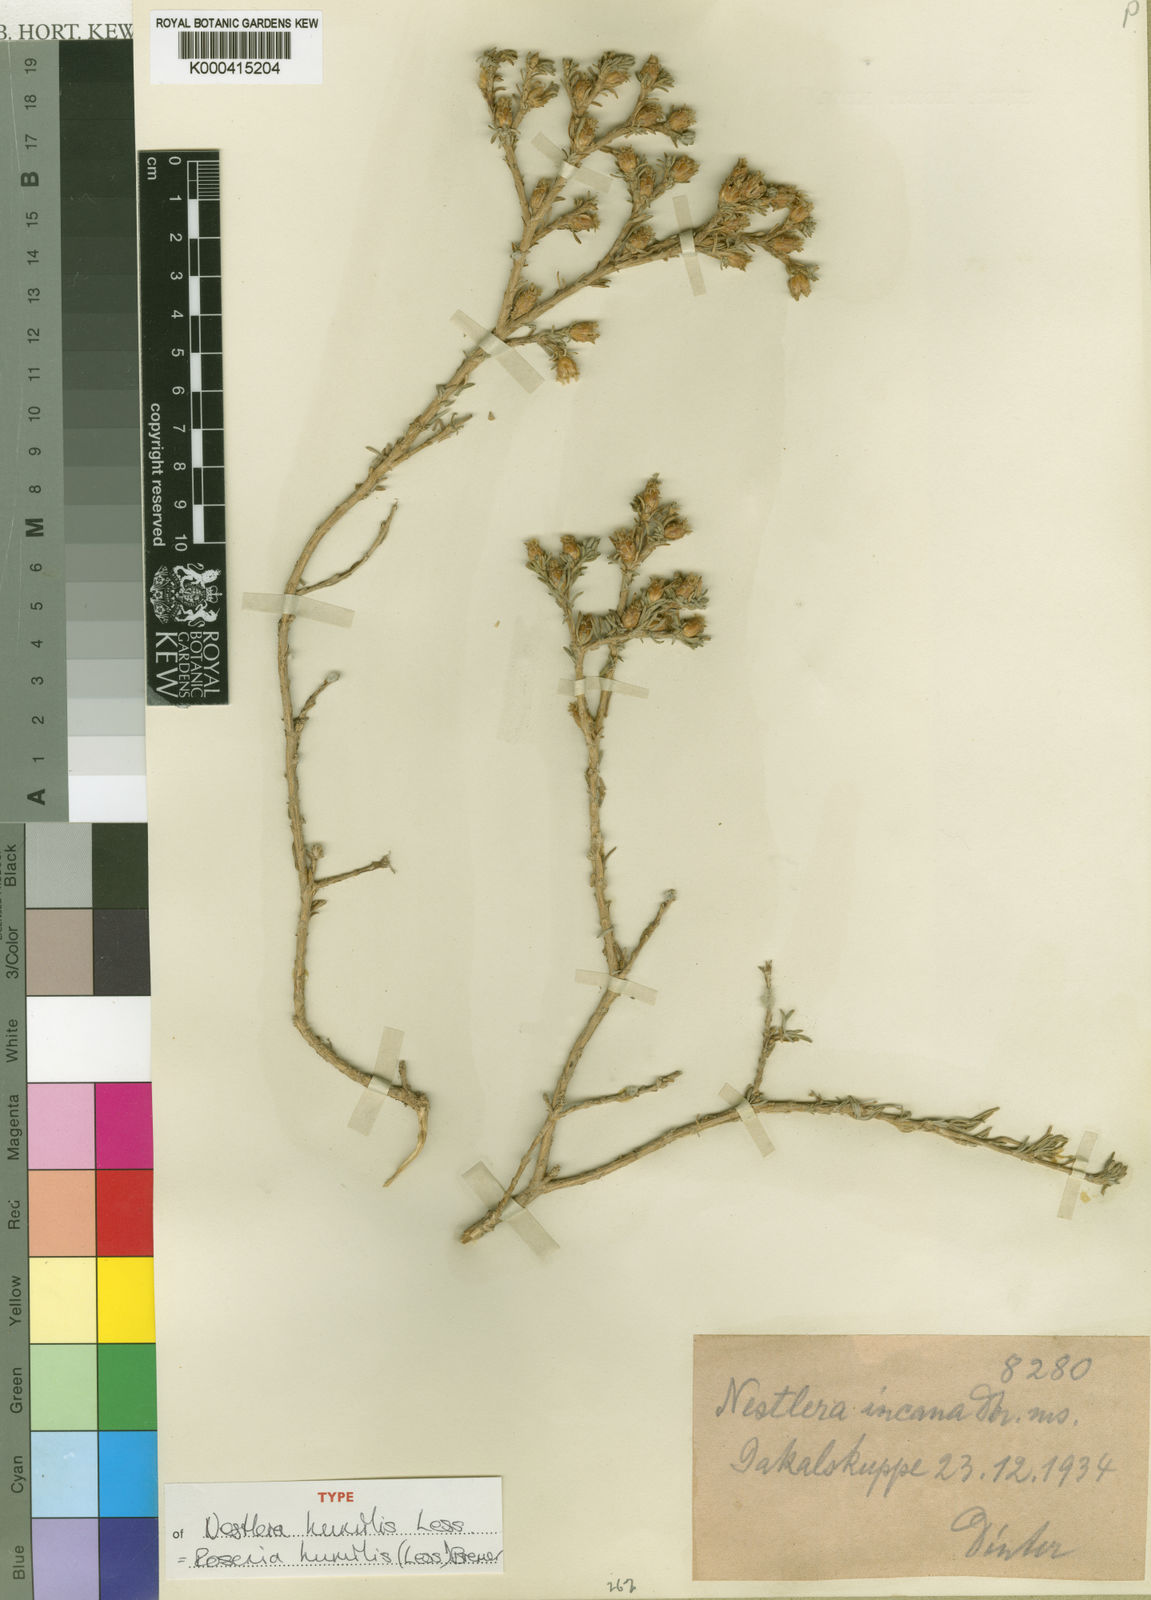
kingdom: Plantae
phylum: Tracheophyta
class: Magnoliopsida
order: Asterales
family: Asteraceae
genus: Oedera
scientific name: Oedera humilis
